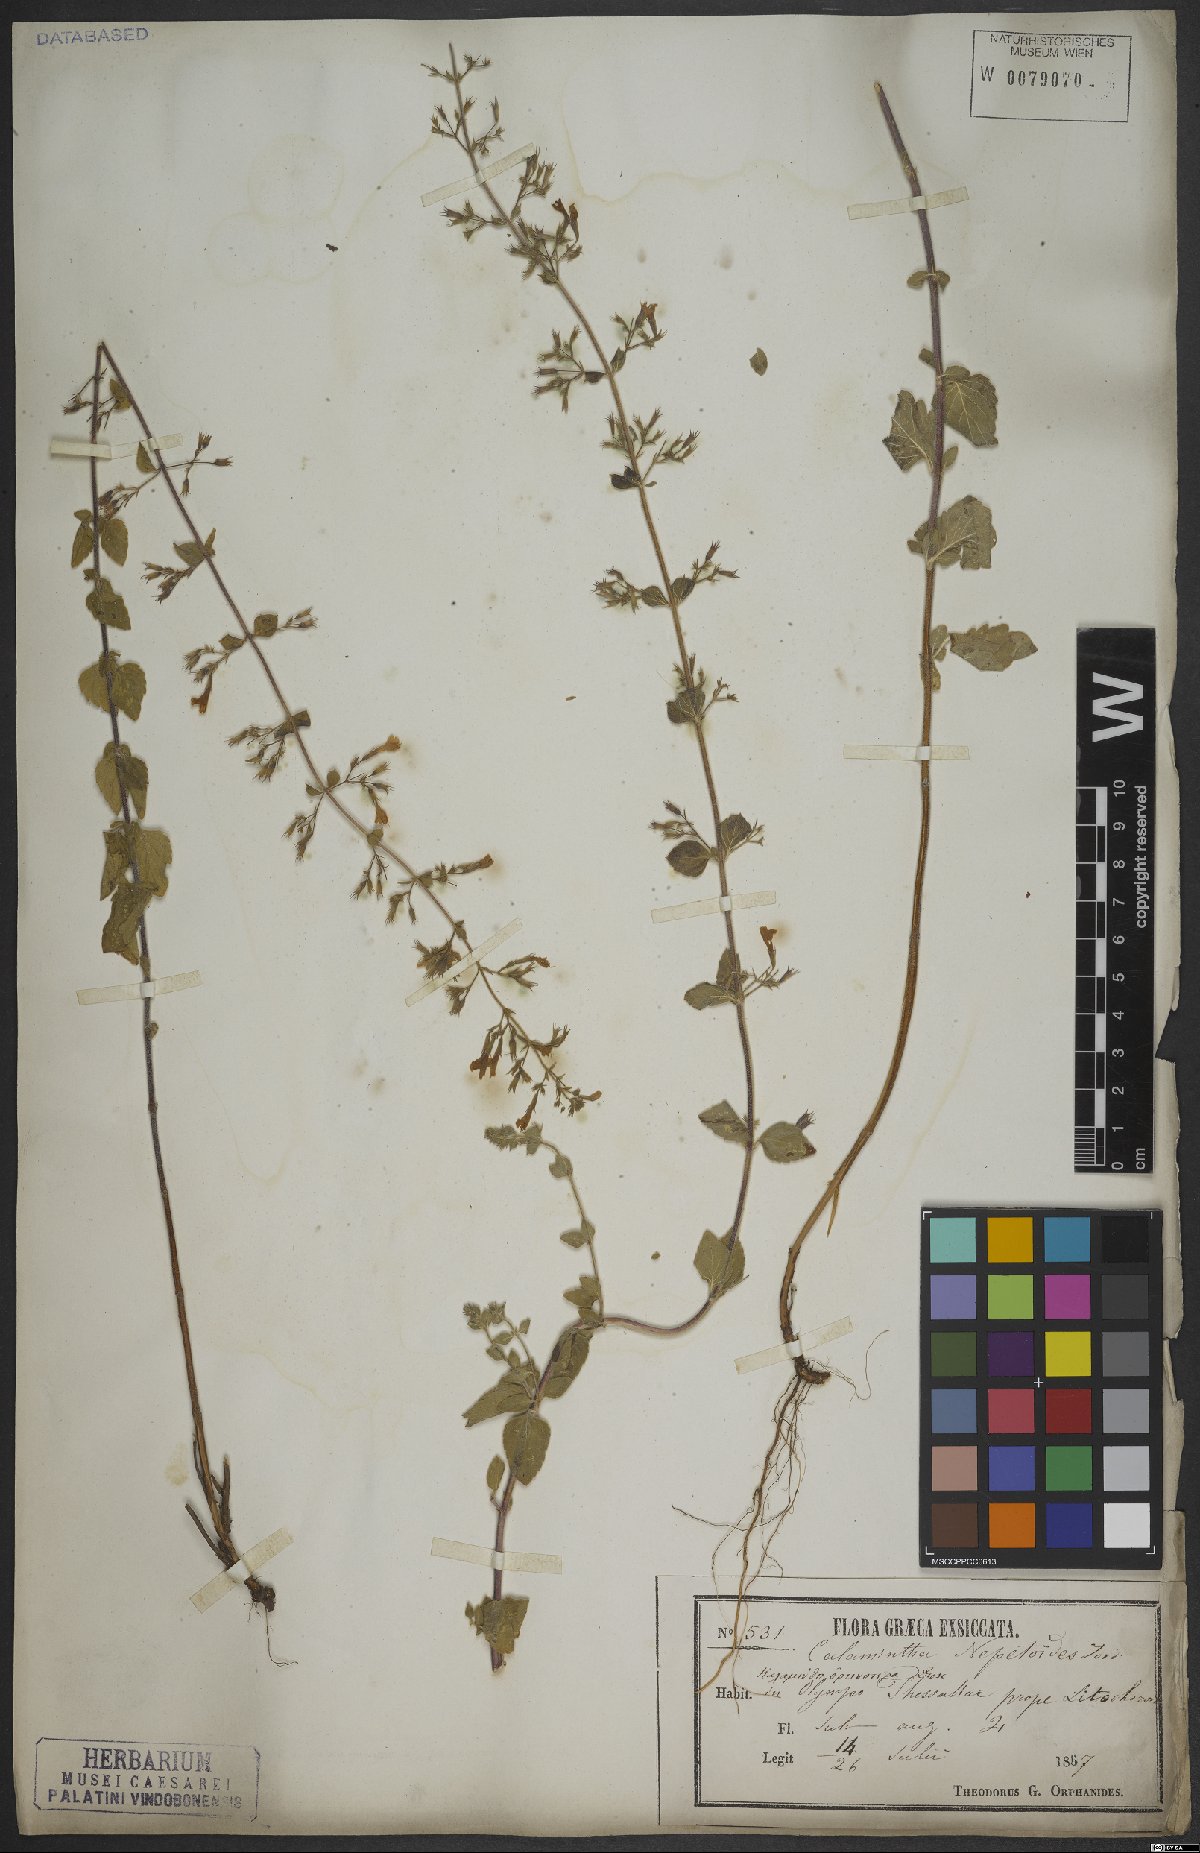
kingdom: Plantae
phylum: Tracheophyta
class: Magnoliopsida
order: Lamiales
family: Lamiaceae
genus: Clinopodium
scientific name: Clinopodium nepeta
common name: Lesser calamint
